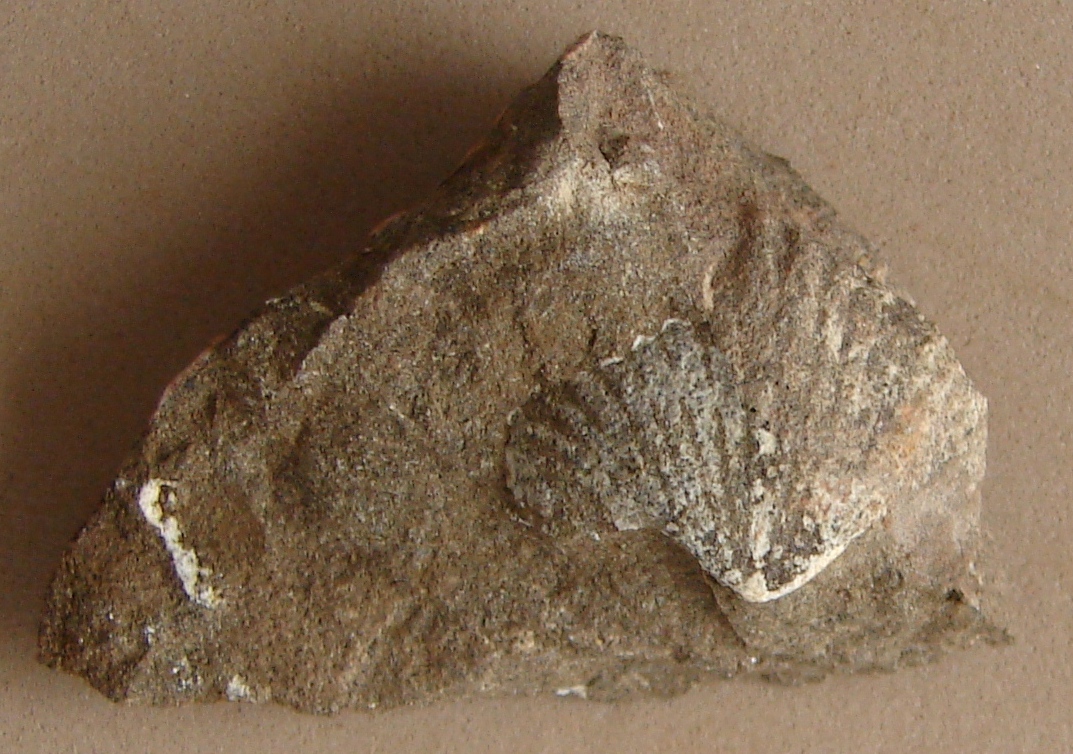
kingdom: Animalia
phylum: Brachiopoda
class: Rhynchonellata
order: Rhynchonellida
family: Trigonirhynchiidae
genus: Oligoptycherhynchus
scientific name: Oligoptycherhynchus
